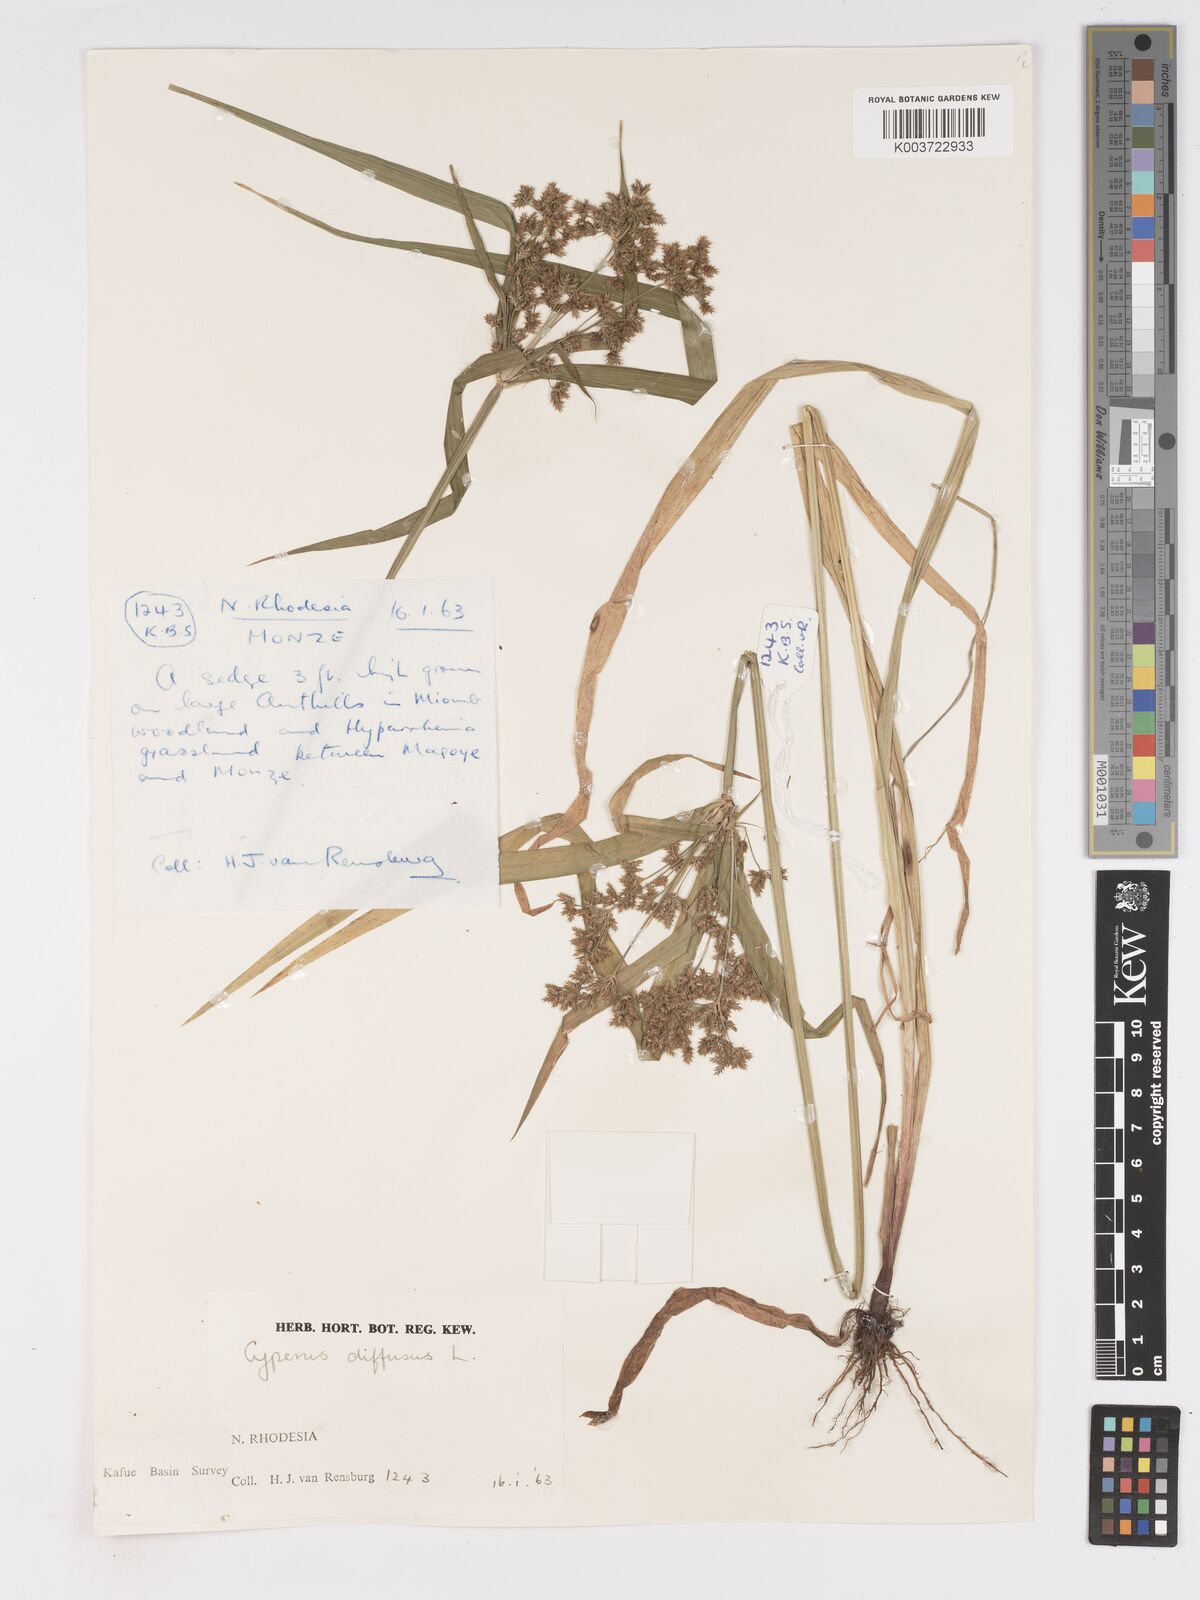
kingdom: Plantae
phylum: Tracheophyta
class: Liliopsida
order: Poales
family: Cyperaceae
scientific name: Cyperaceae
